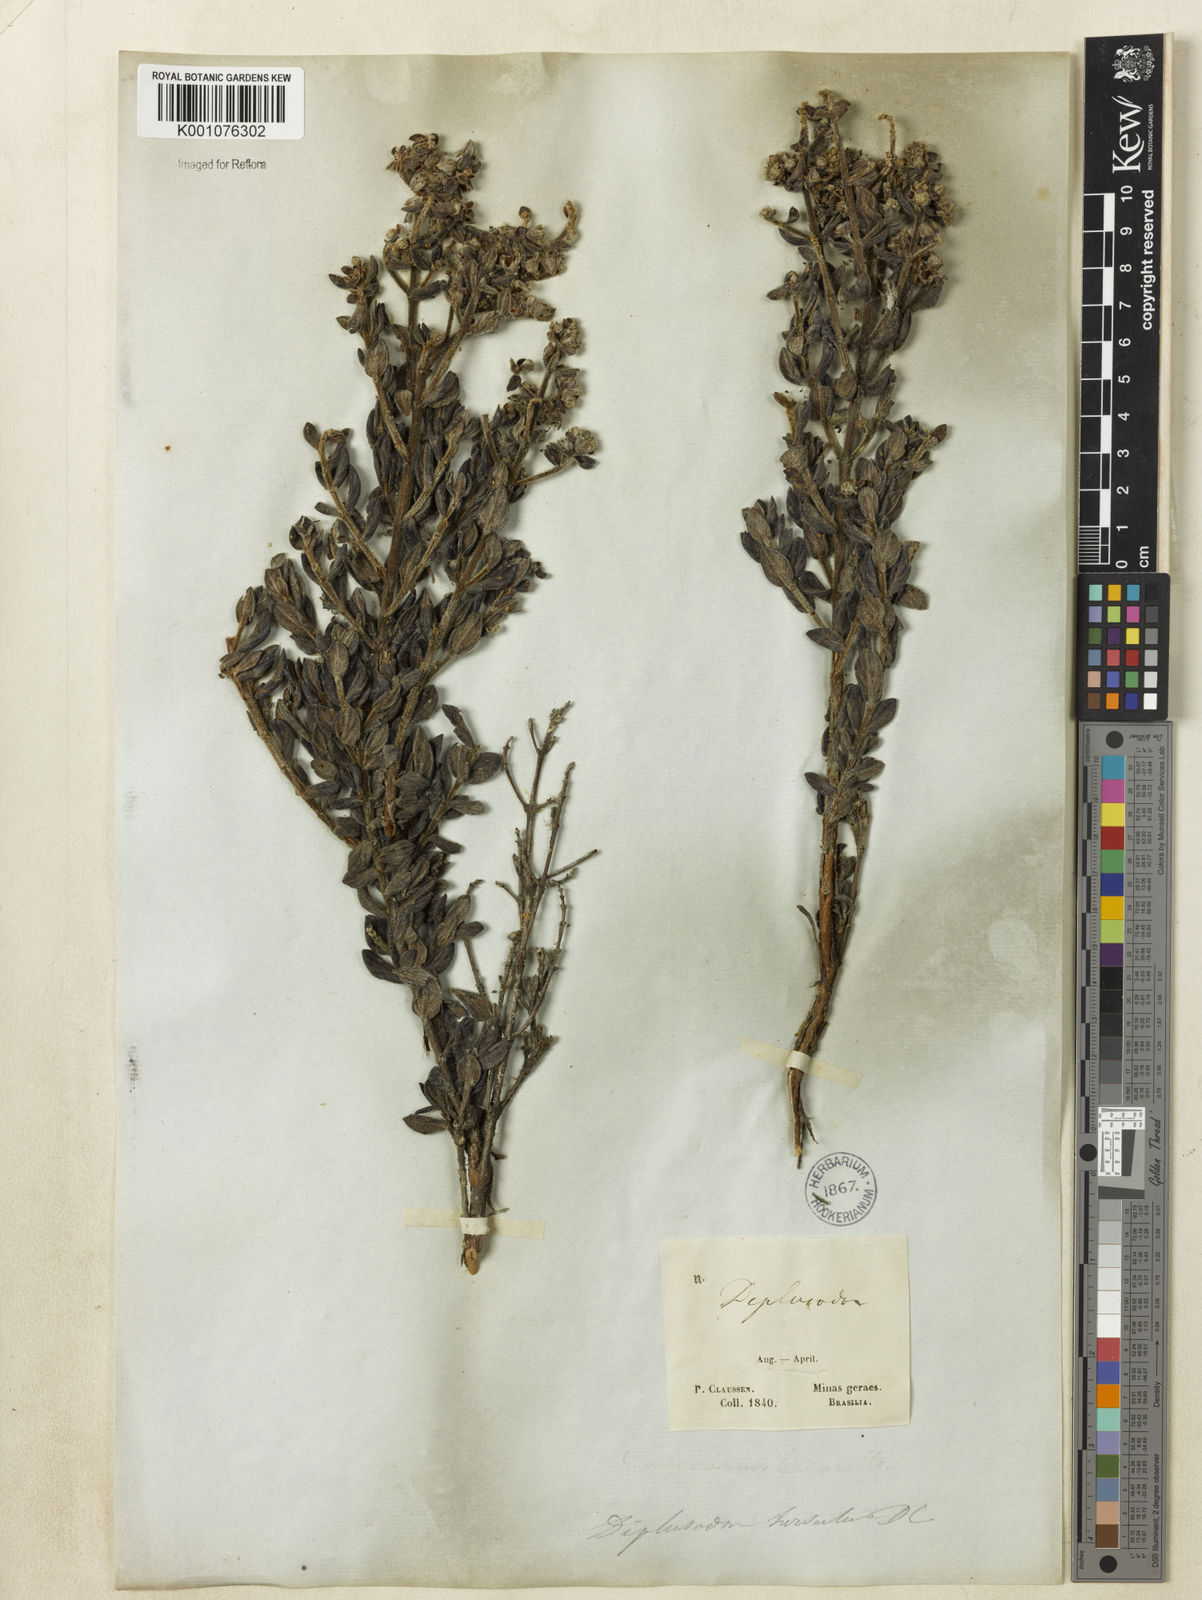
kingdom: Plantae
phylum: Tracheophyta
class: Magnoliopsida
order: Myrtales
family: Lythraceae
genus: Diplusodon
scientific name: Diplusodon hirsutus
